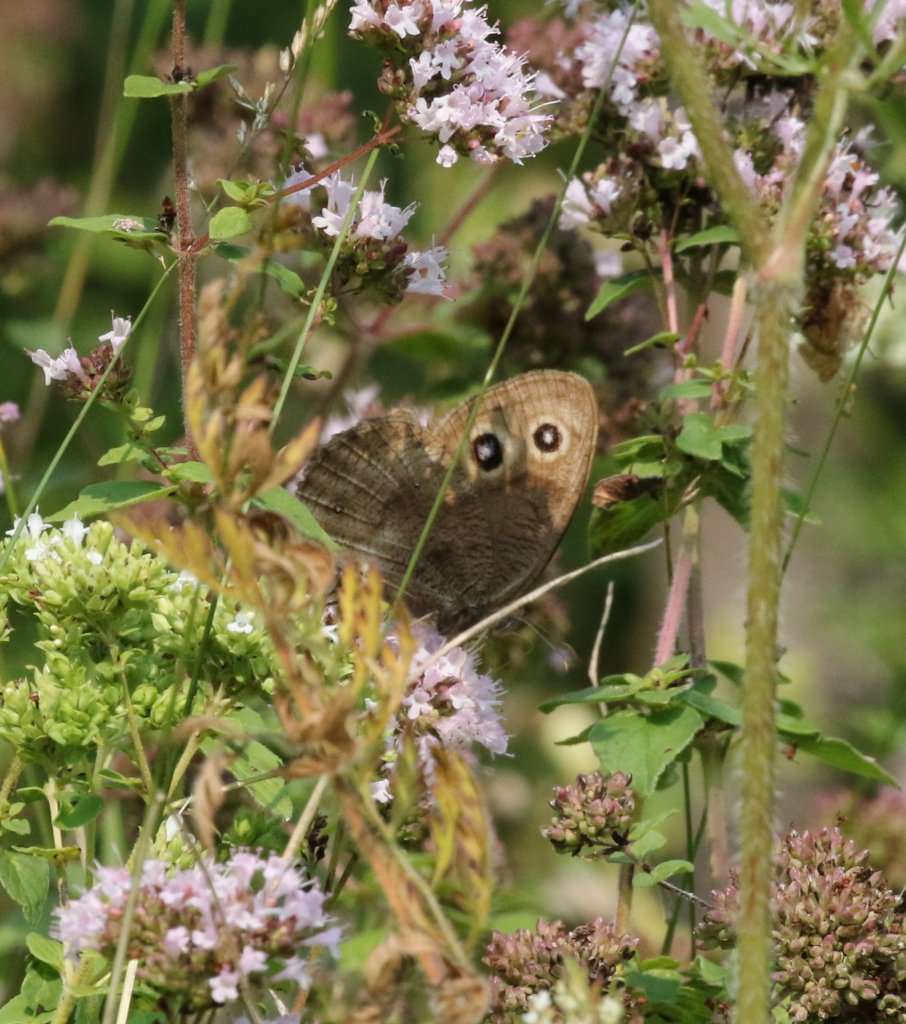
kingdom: Animalia
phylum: Arthropoda
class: Insecta
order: Lepidoptera
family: Nymphalidae
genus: Cercyonis
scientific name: Cercyonis pegala
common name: Common Wood-Nymph
